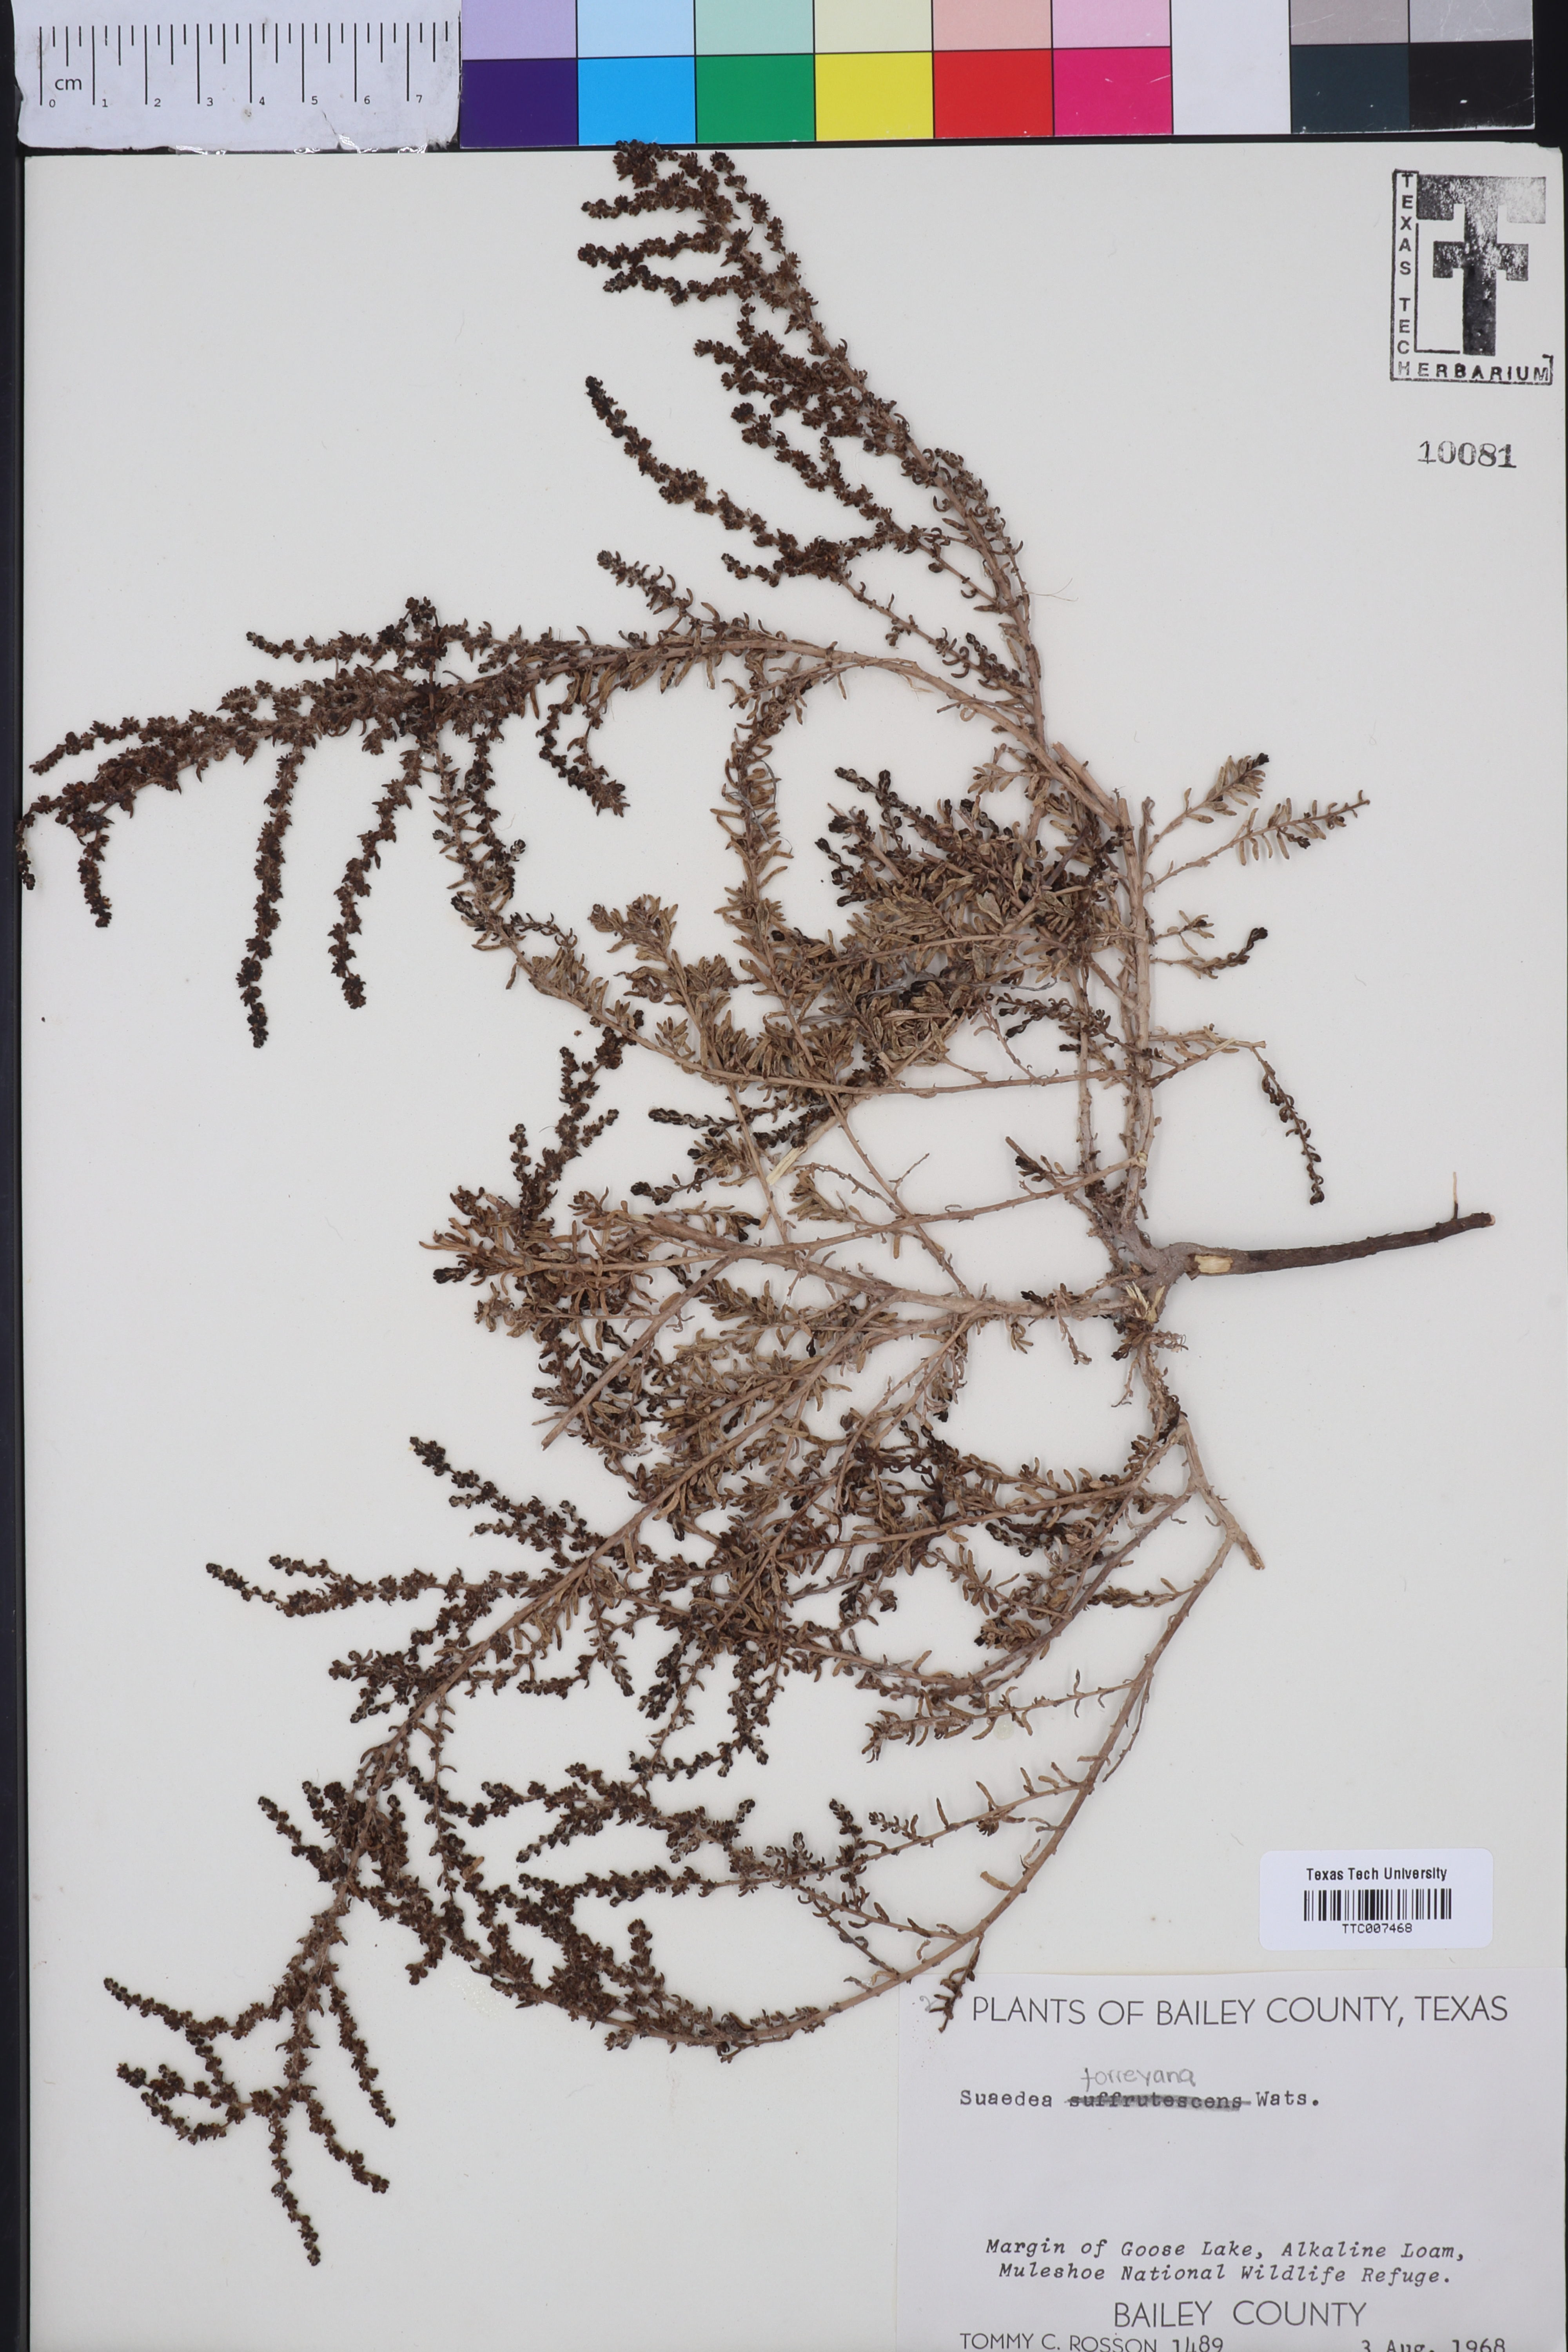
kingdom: Plantae
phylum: Tracheophyta
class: Magnoliopsida
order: Caryophyllales
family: Amaranthaceae
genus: Suaeda
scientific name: Suaeda suffrutescens
